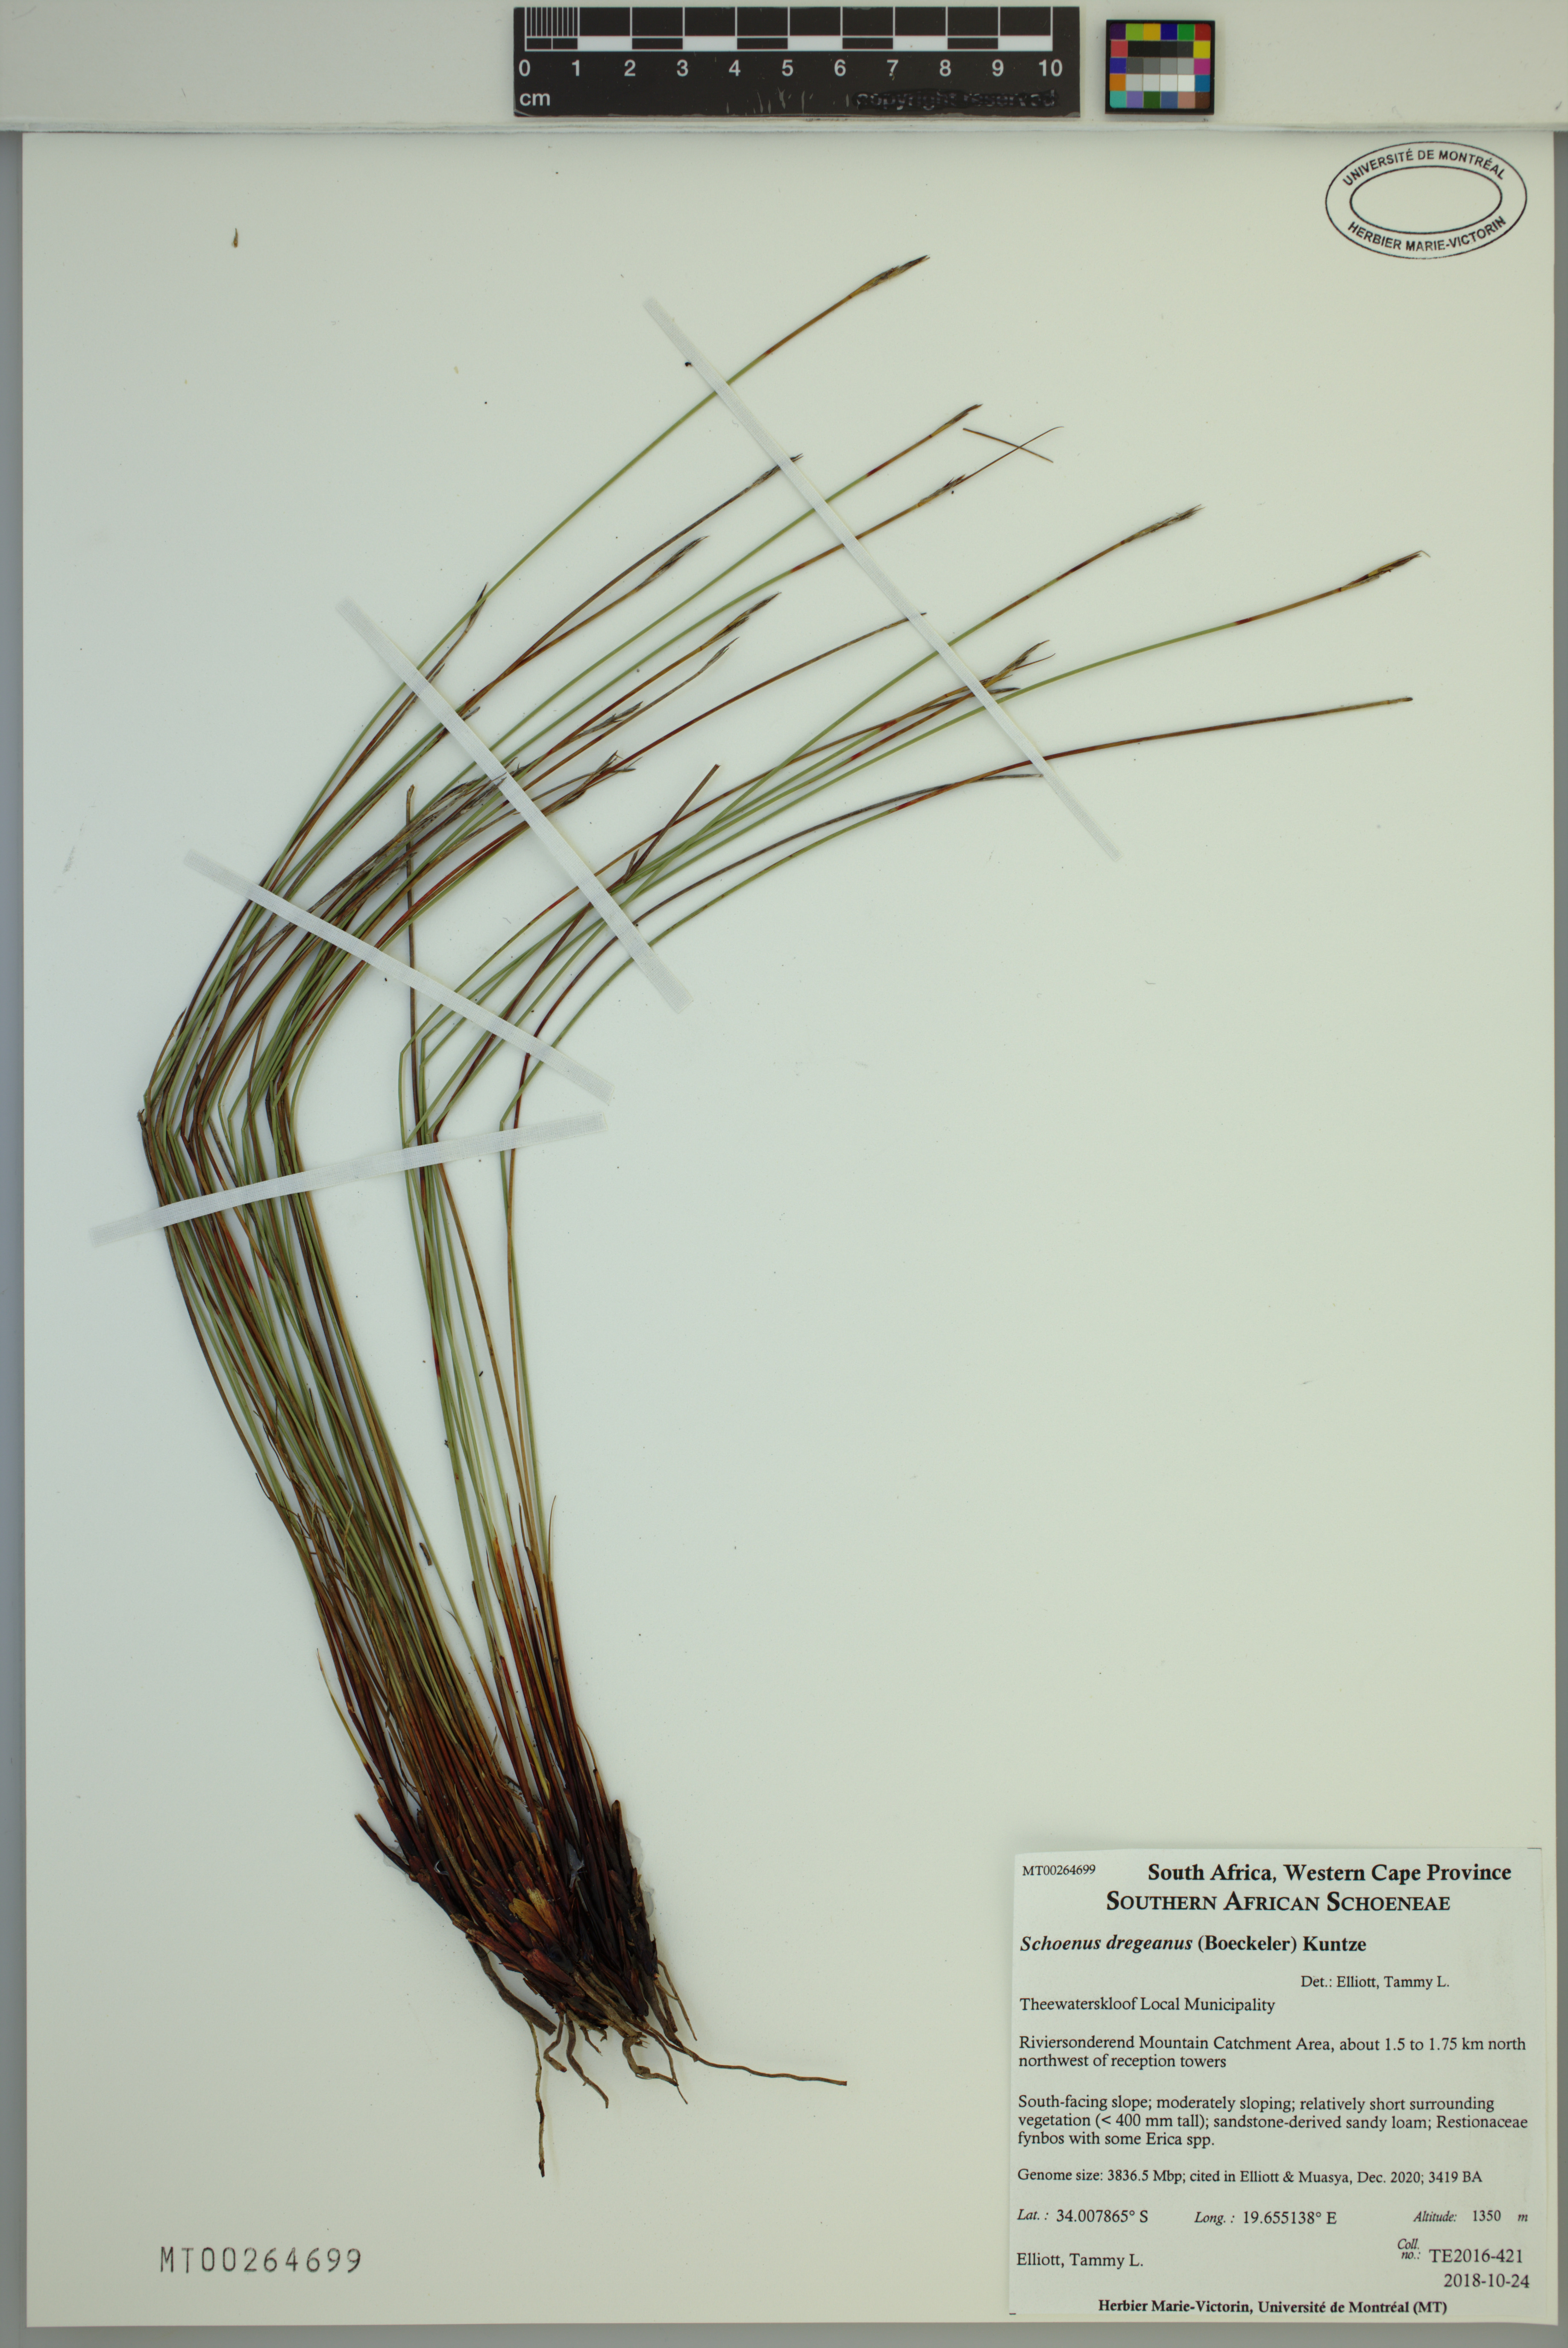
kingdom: Plantae
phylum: Tracheophyta
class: Liliopsida
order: Poales
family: Cyperaceae
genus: Schoenus
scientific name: Schoenus dregeanus
